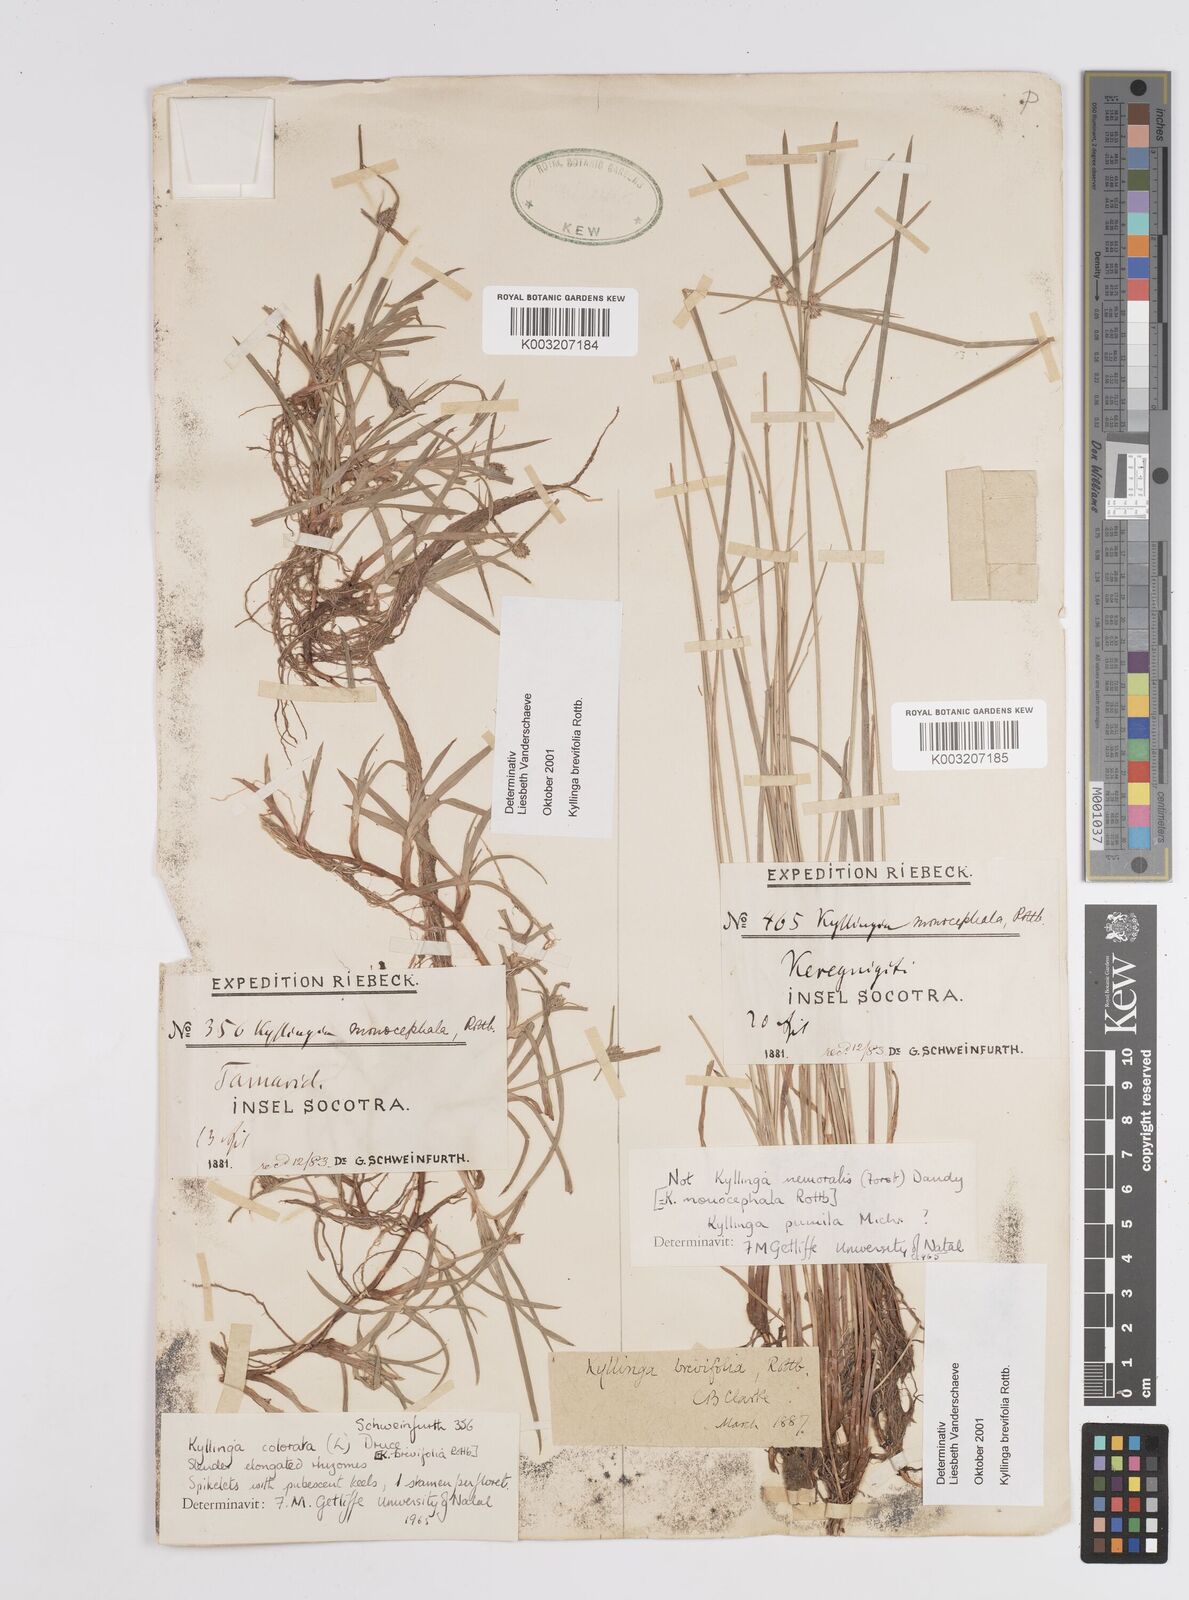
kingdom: Plantae
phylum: Tracheophyta
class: Liliopsida
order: Poales
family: Cyperaceae
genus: Cyperus
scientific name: Cyperus
